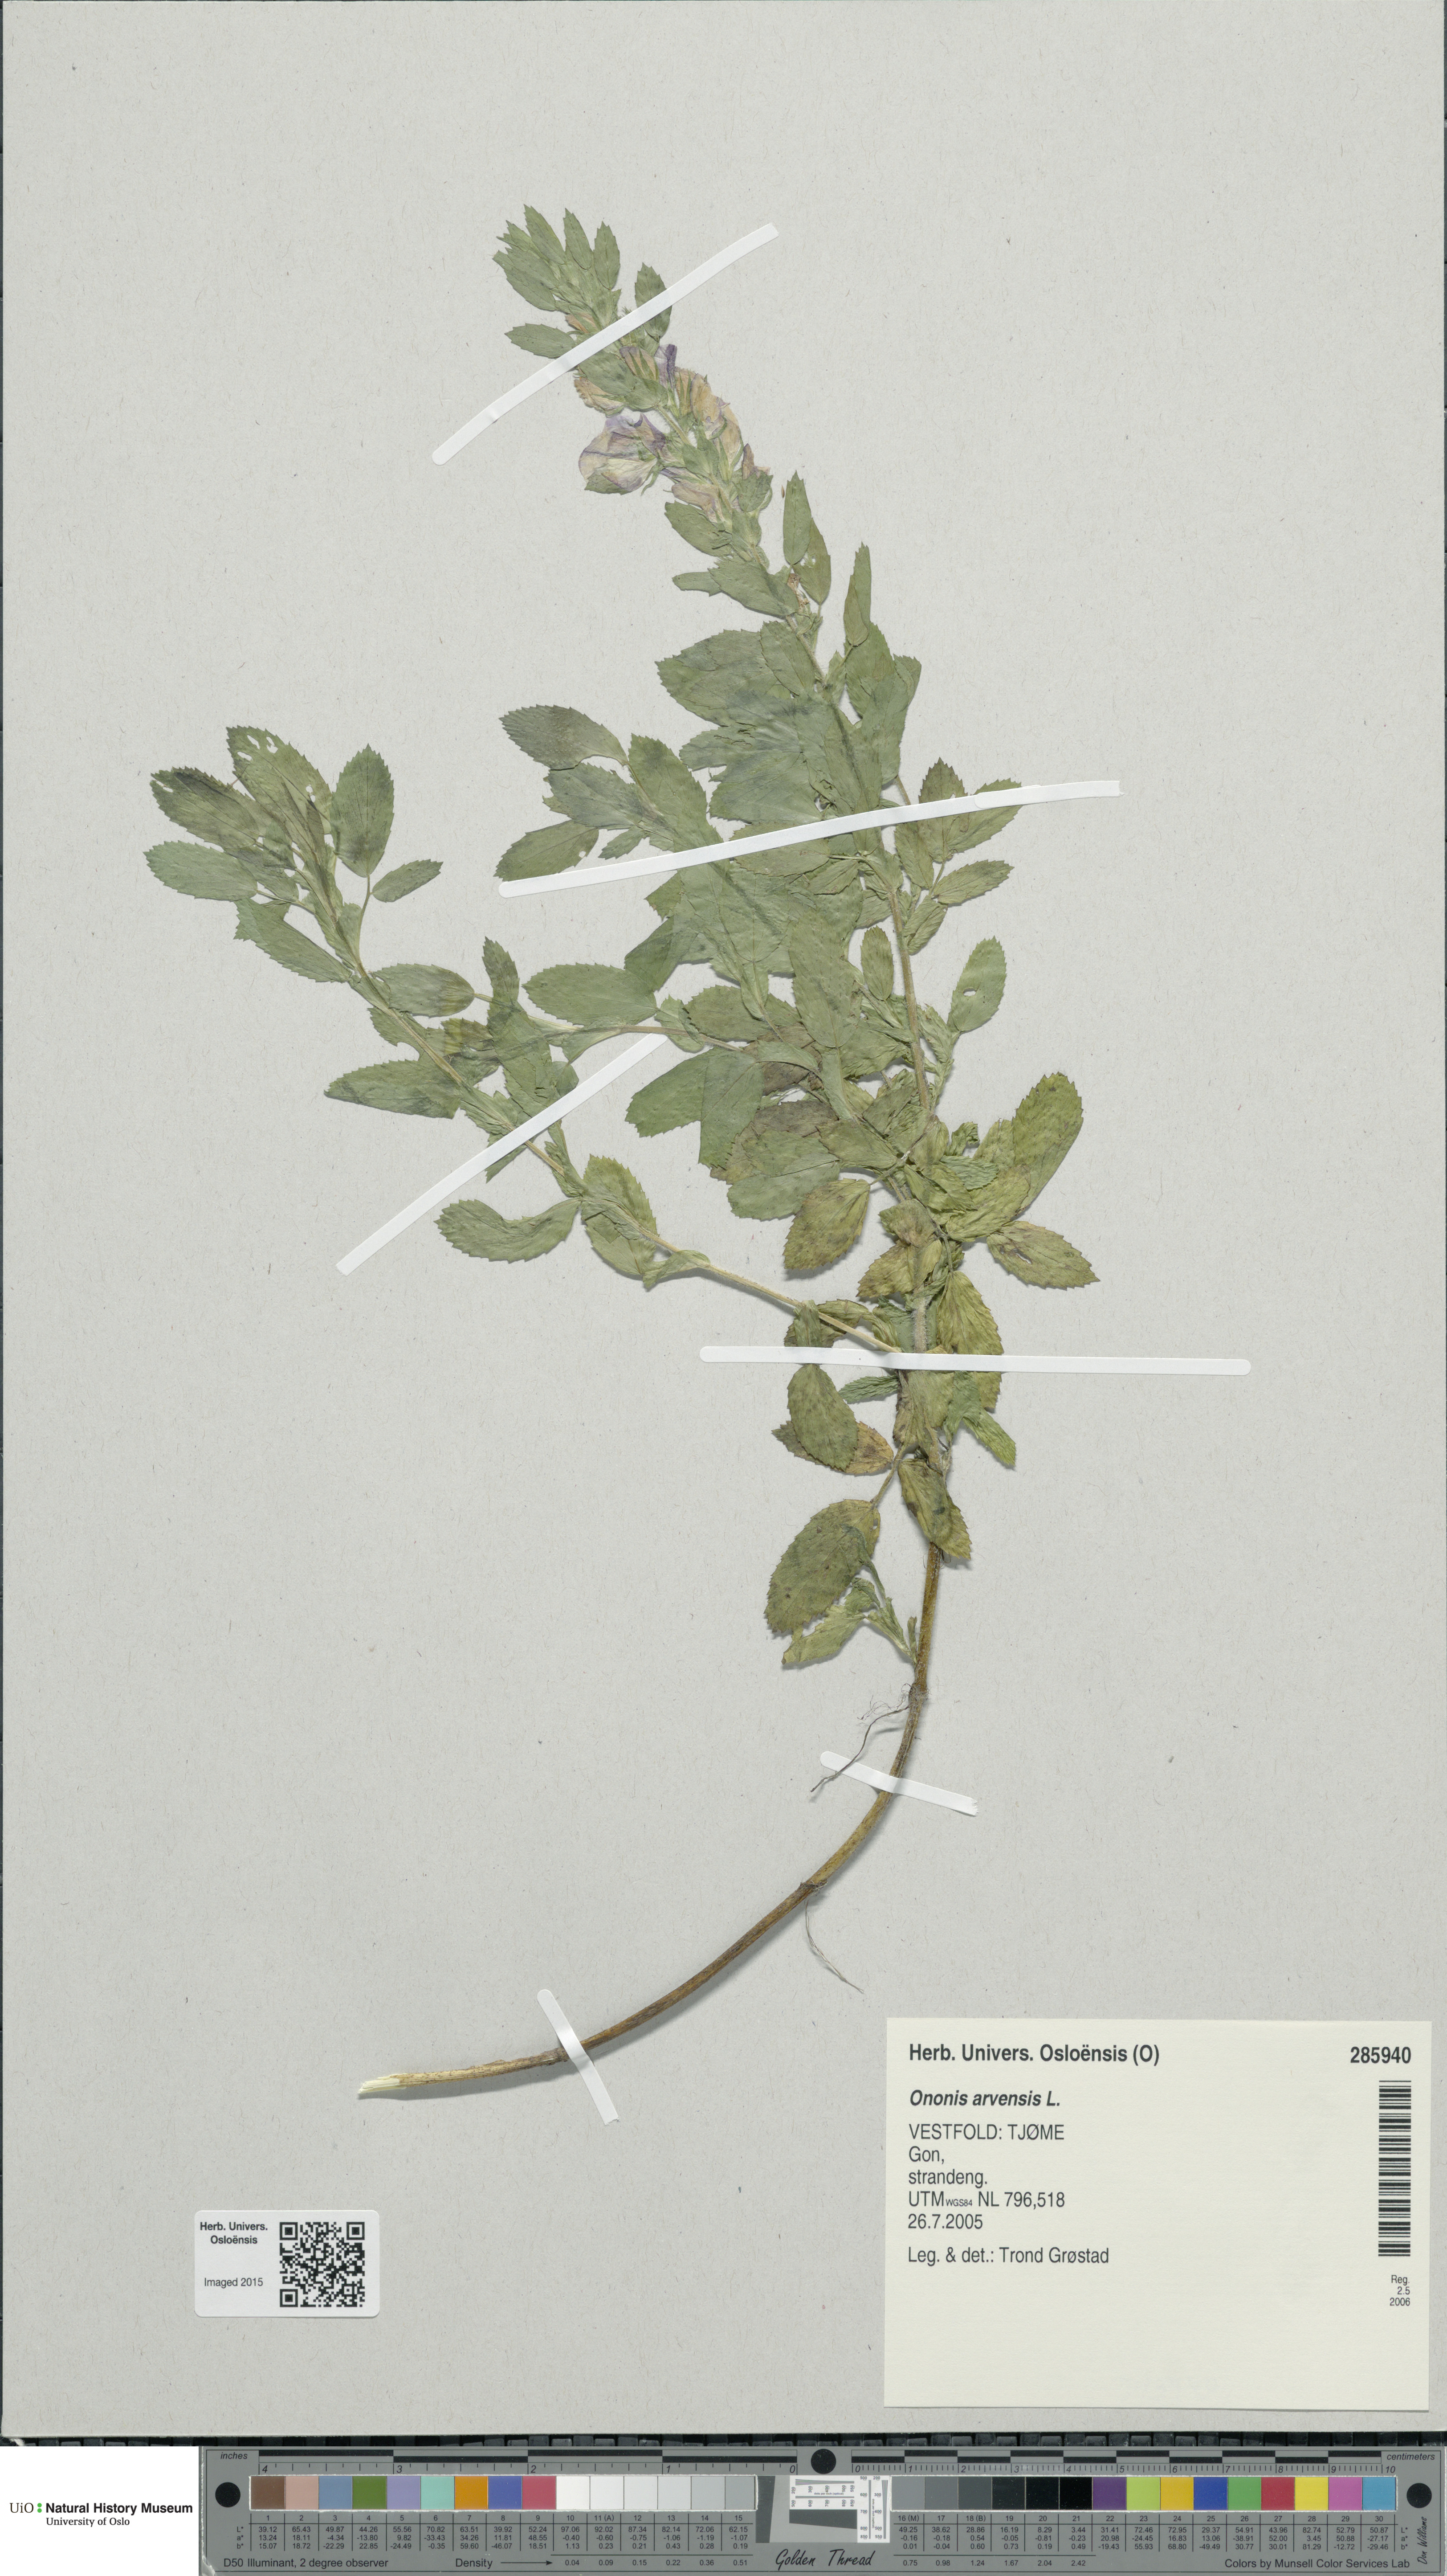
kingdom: Plantae
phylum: Tracheophyta
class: Magnoliopsida
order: Fabales
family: Fabaceae
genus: Ononis
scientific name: Ononis arvensis
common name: Field restharrow
